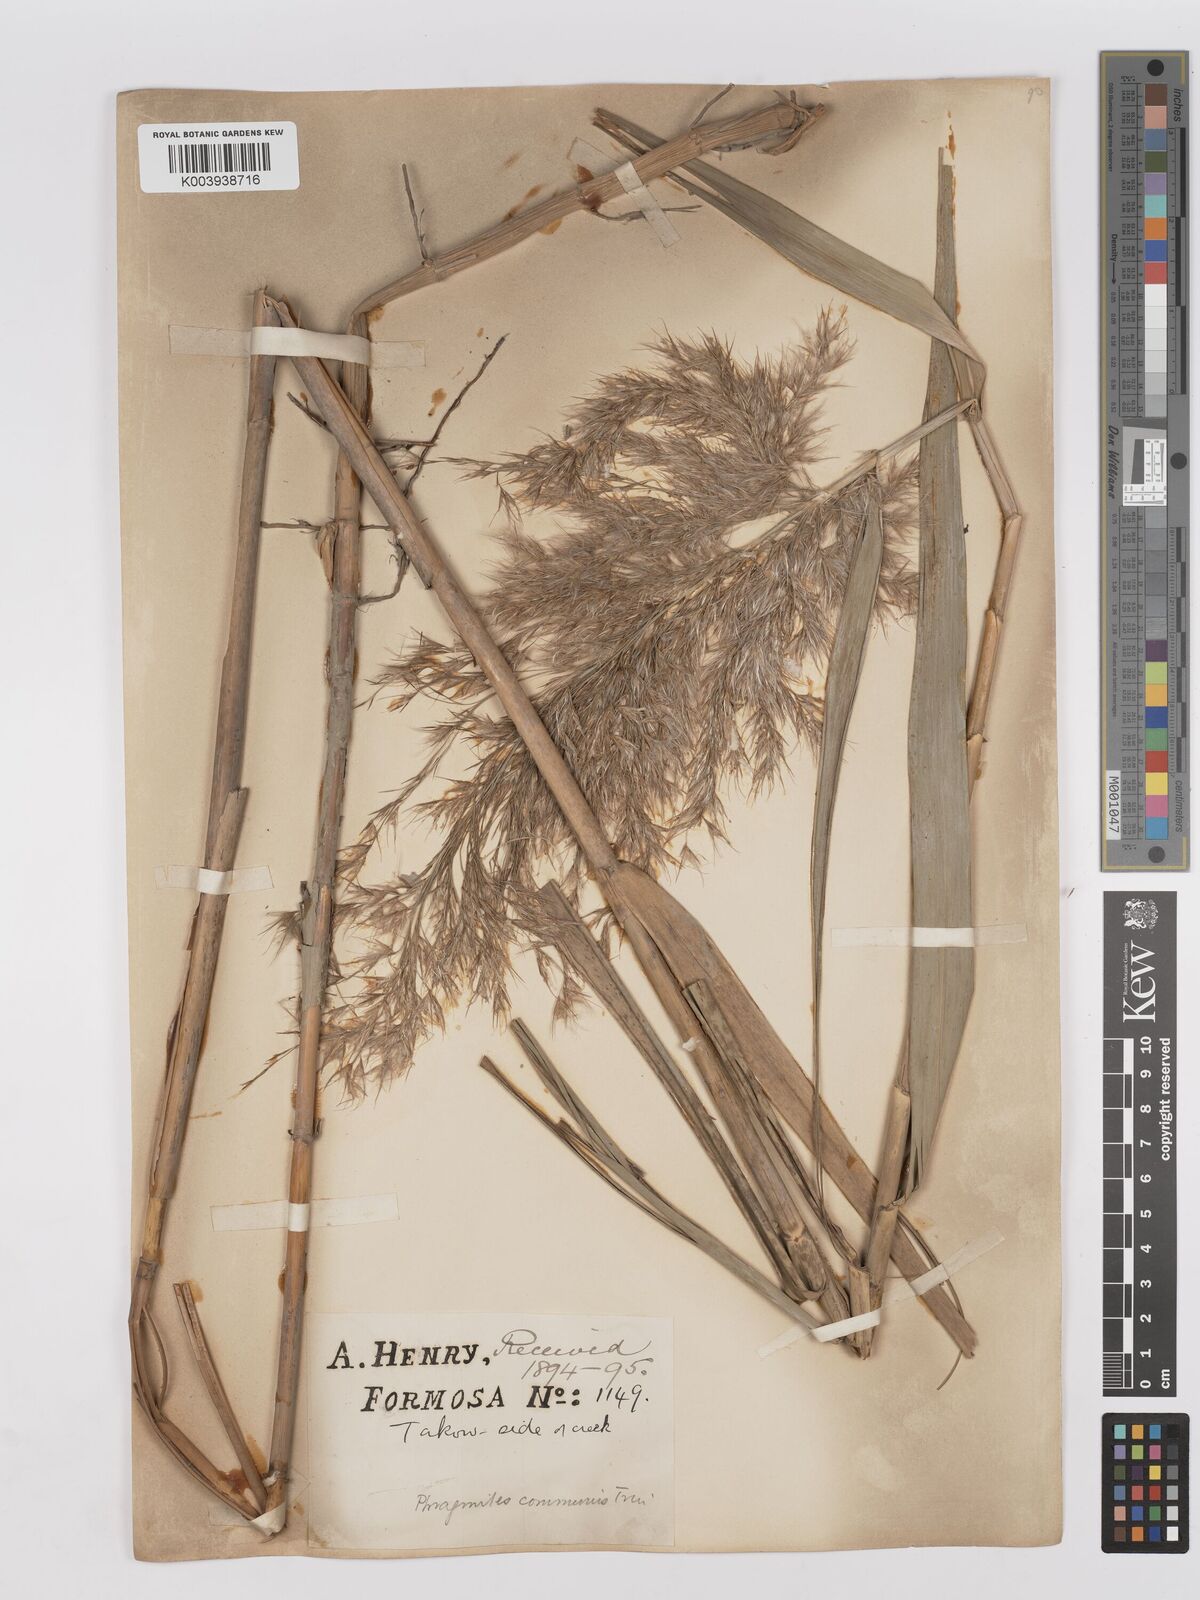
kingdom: Plantae
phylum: Tracheophyta
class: Liliopsida
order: Poales
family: Poaceae
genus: Phragmites
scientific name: Phragmites australis
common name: Common reed
